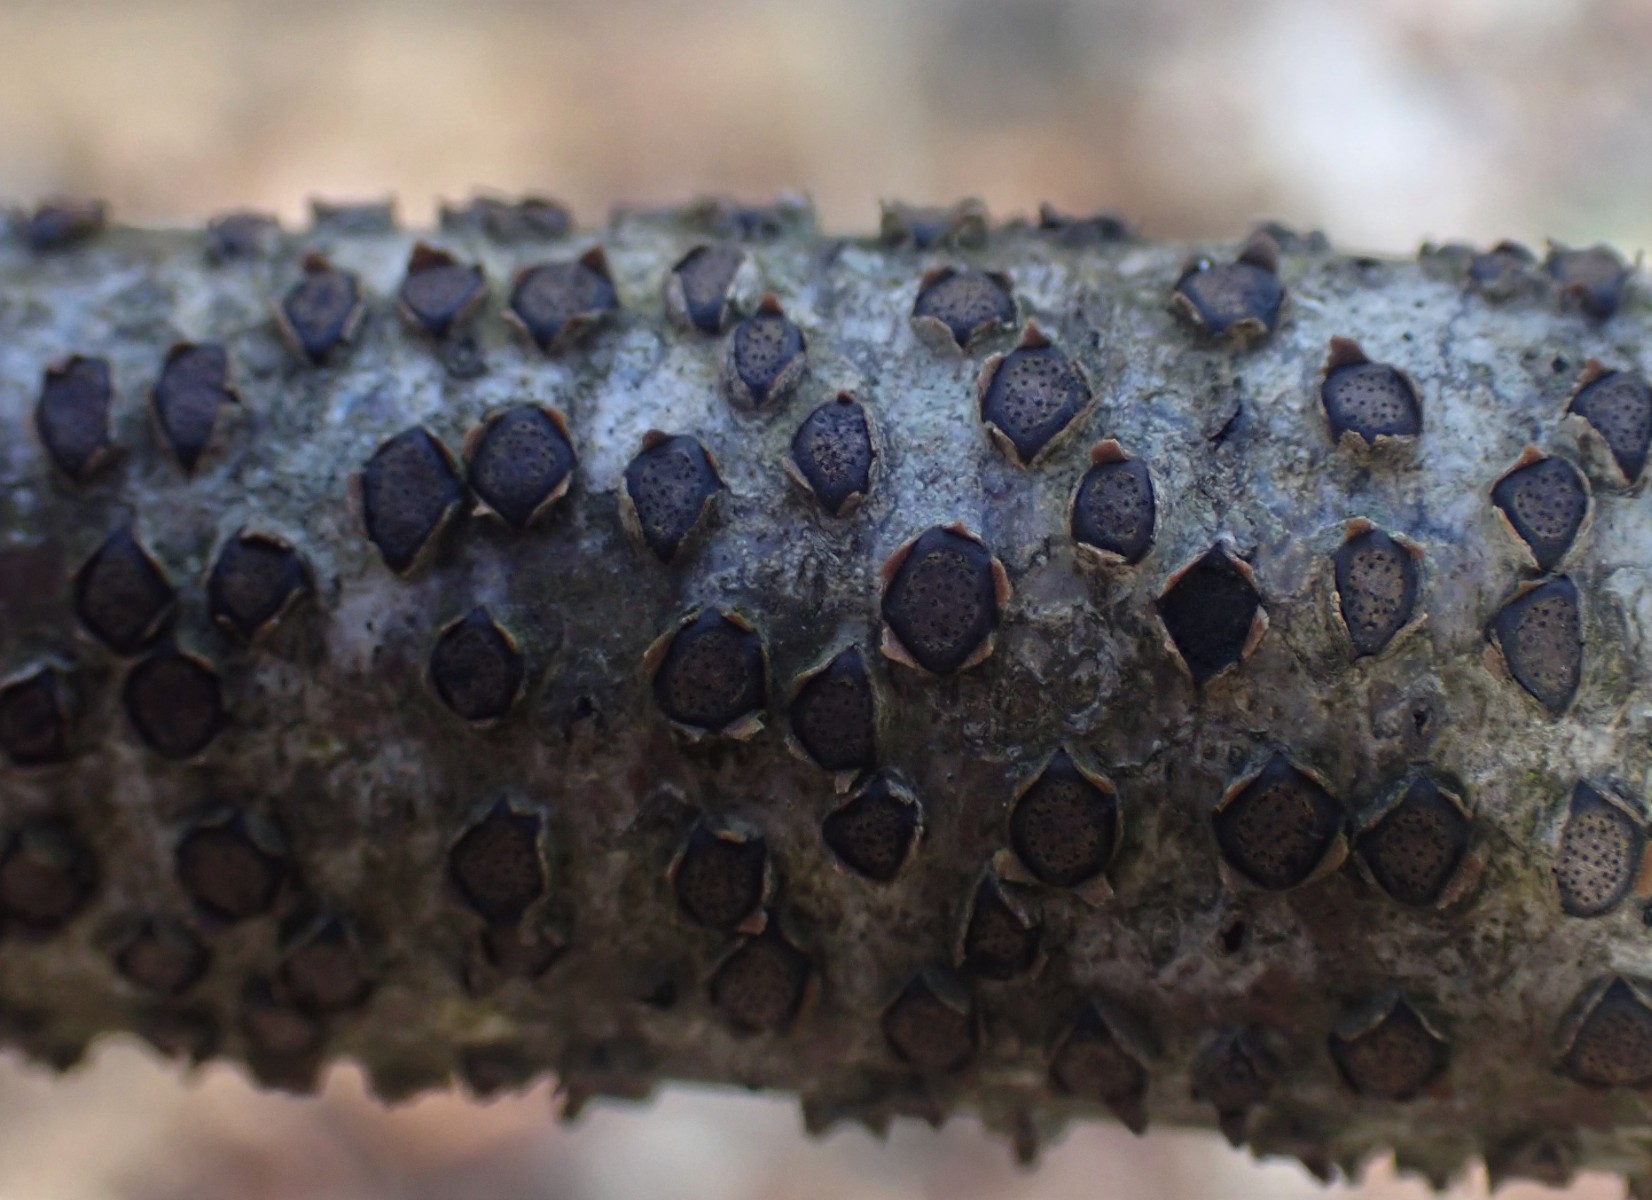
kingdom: Fungi
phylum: Ascomycota
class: Sordariomycetes
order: Xylariales
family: Diatrypaceae
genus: Diatrype
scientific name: Diatrype disciformis
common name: kant-kulskorpe
